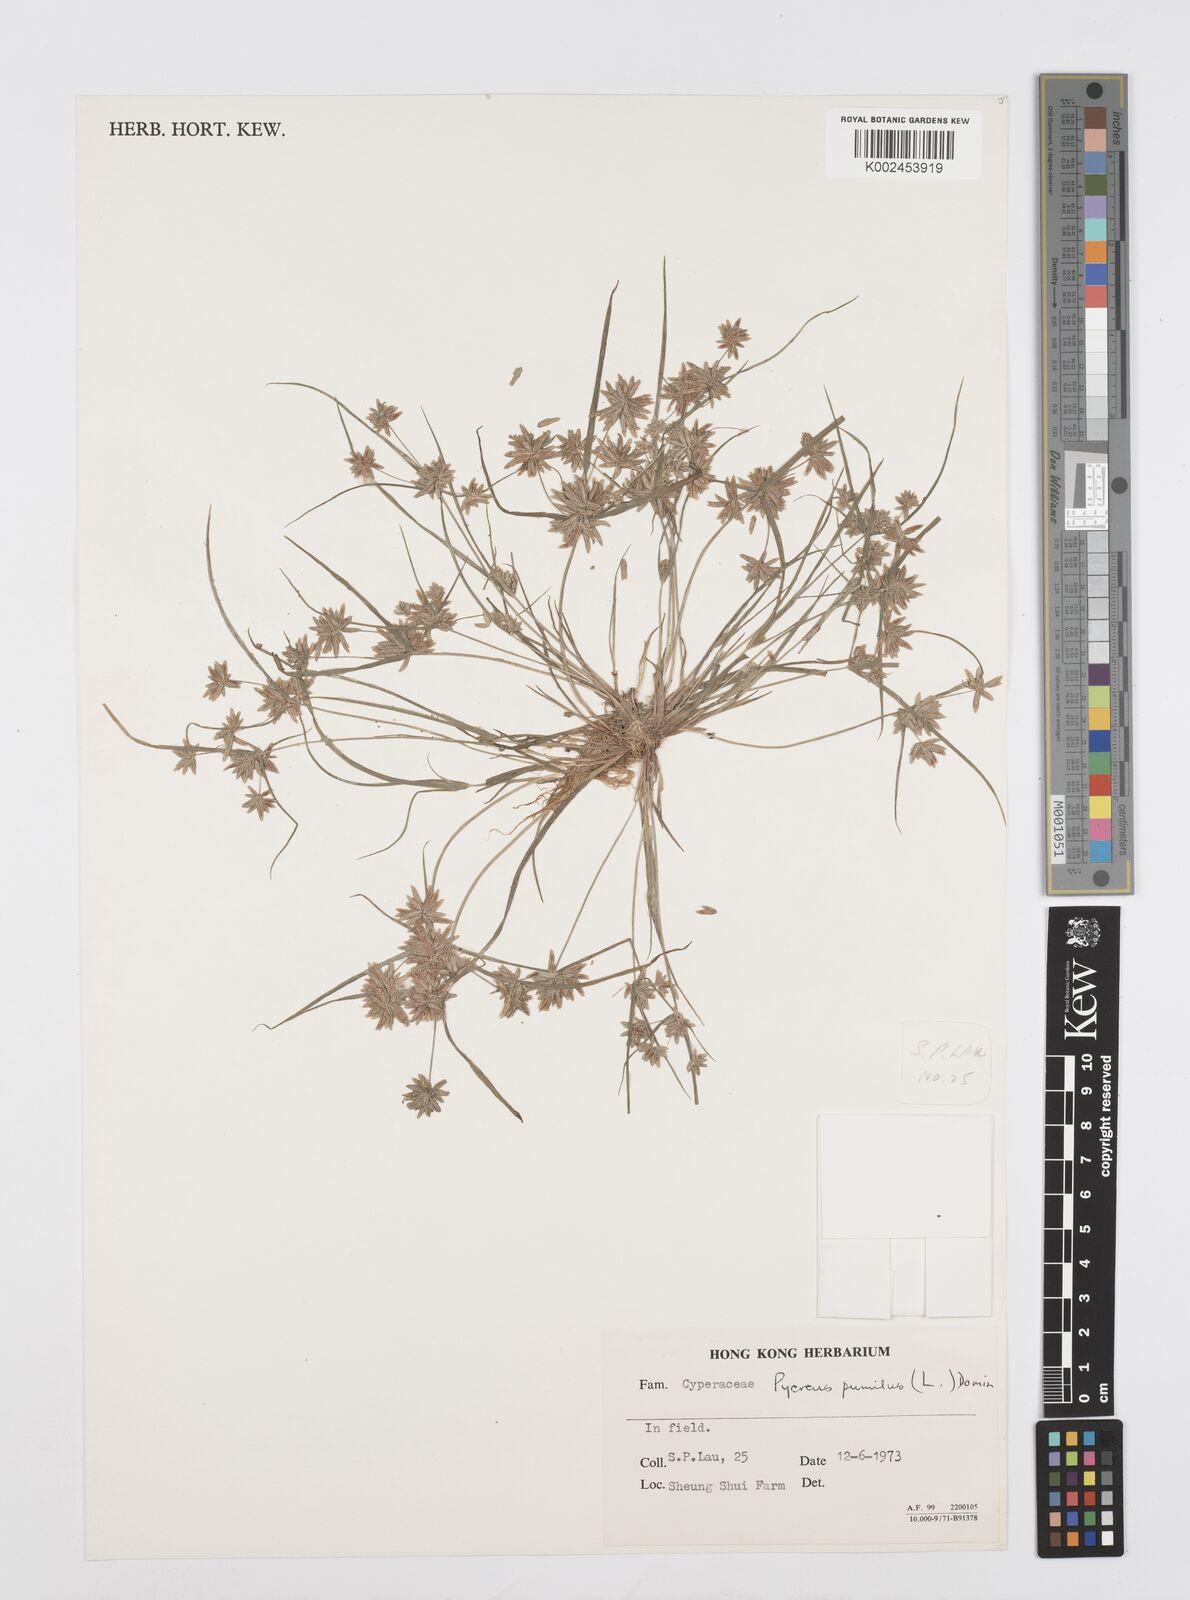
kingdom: Plantae
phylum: Tracheophyta
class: Liliopsida
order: Poales
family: Cyperaceae
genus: Cyperus
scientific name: Cyperus pumilus
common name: Low flatsedge
